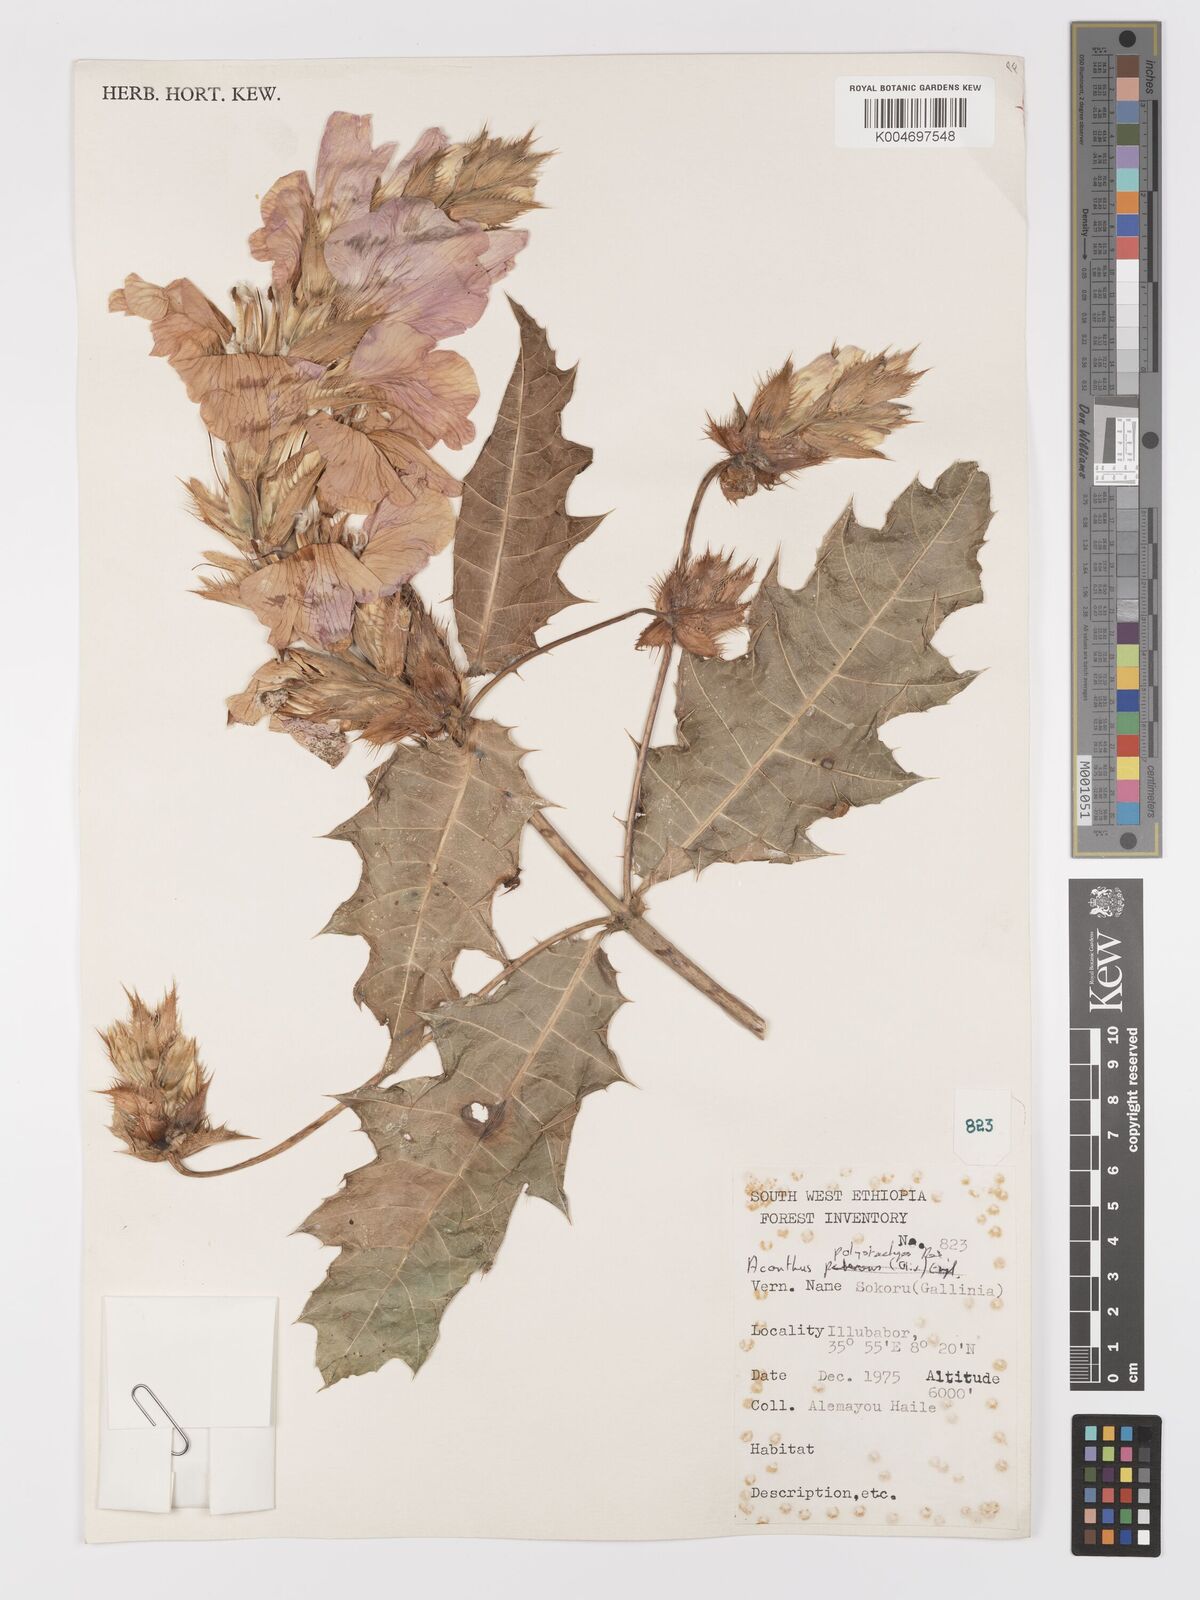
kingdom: Plantae
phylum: Tracheophyta
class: Magnoliopsida
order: Lamiales
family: Acanthaceae
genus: Acanthus
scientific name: Acanthus polystachyus
